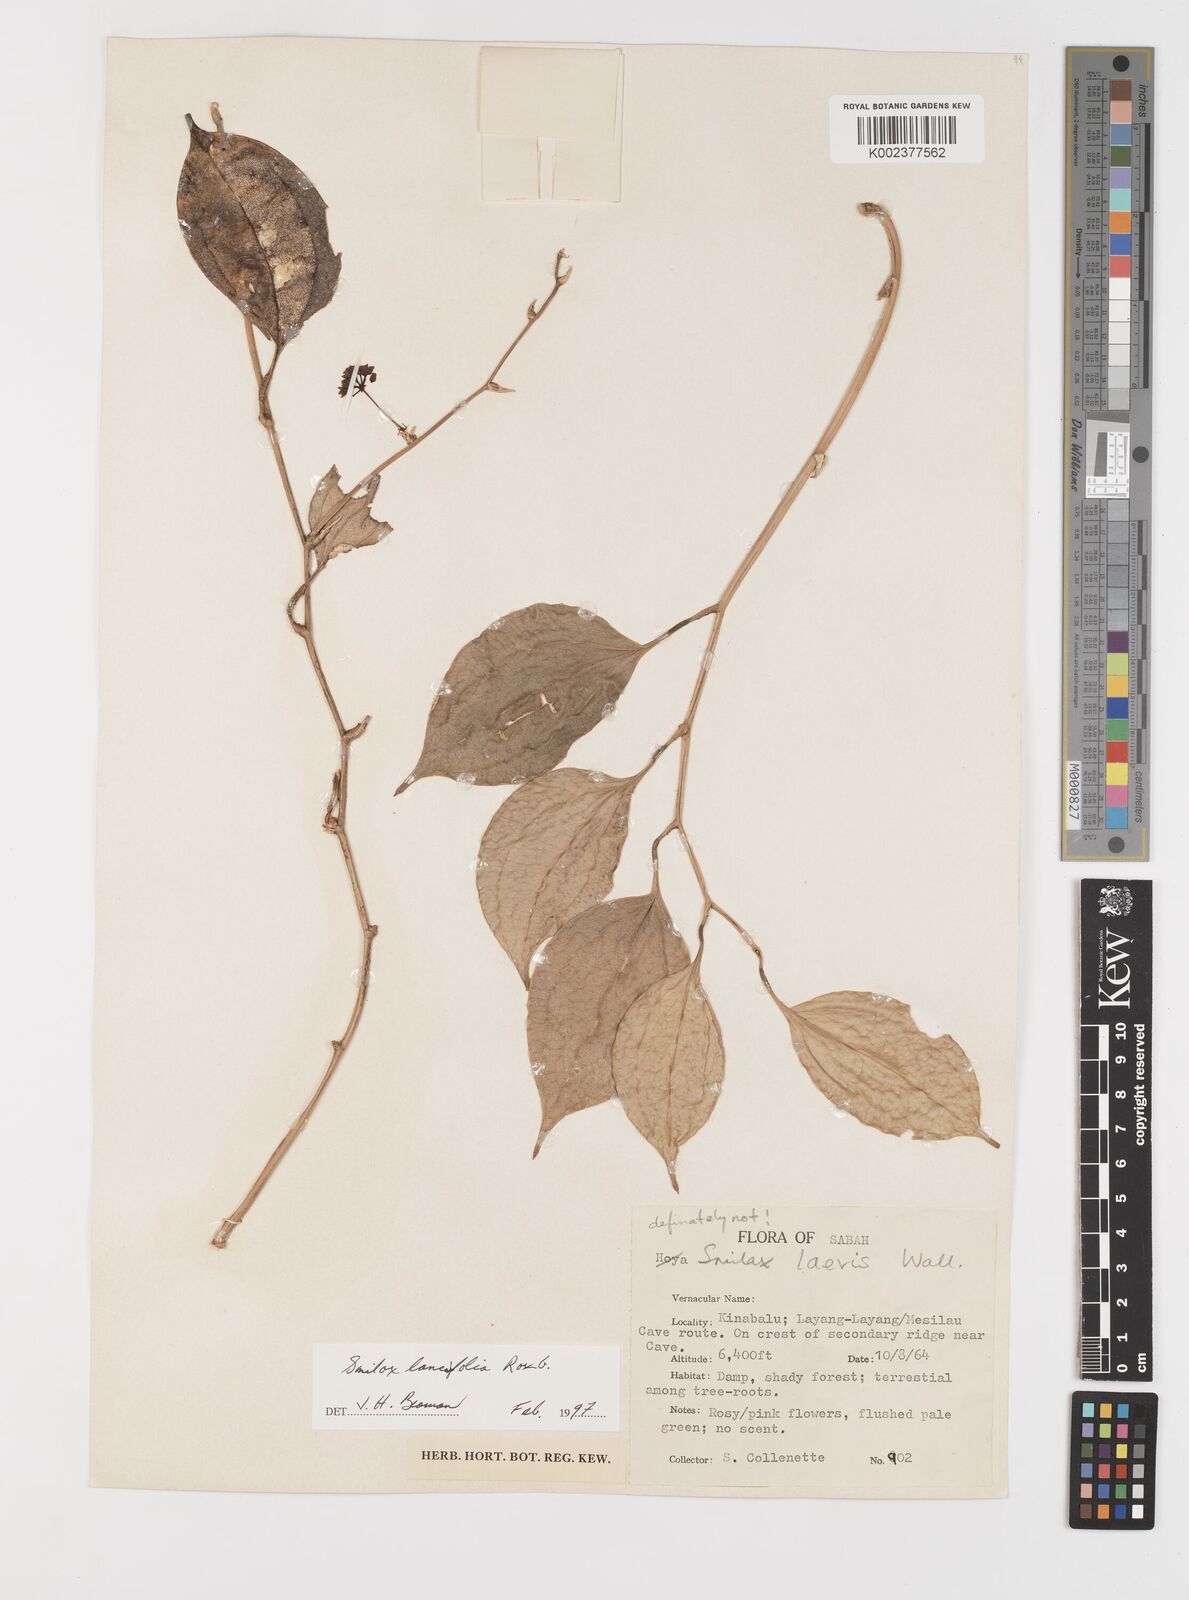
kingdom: Plantae
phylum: Tracheophyta
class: Liliopsida
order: Liliales
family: Smilacaceae
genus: Smilax
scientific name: Smilax lanceifolia
